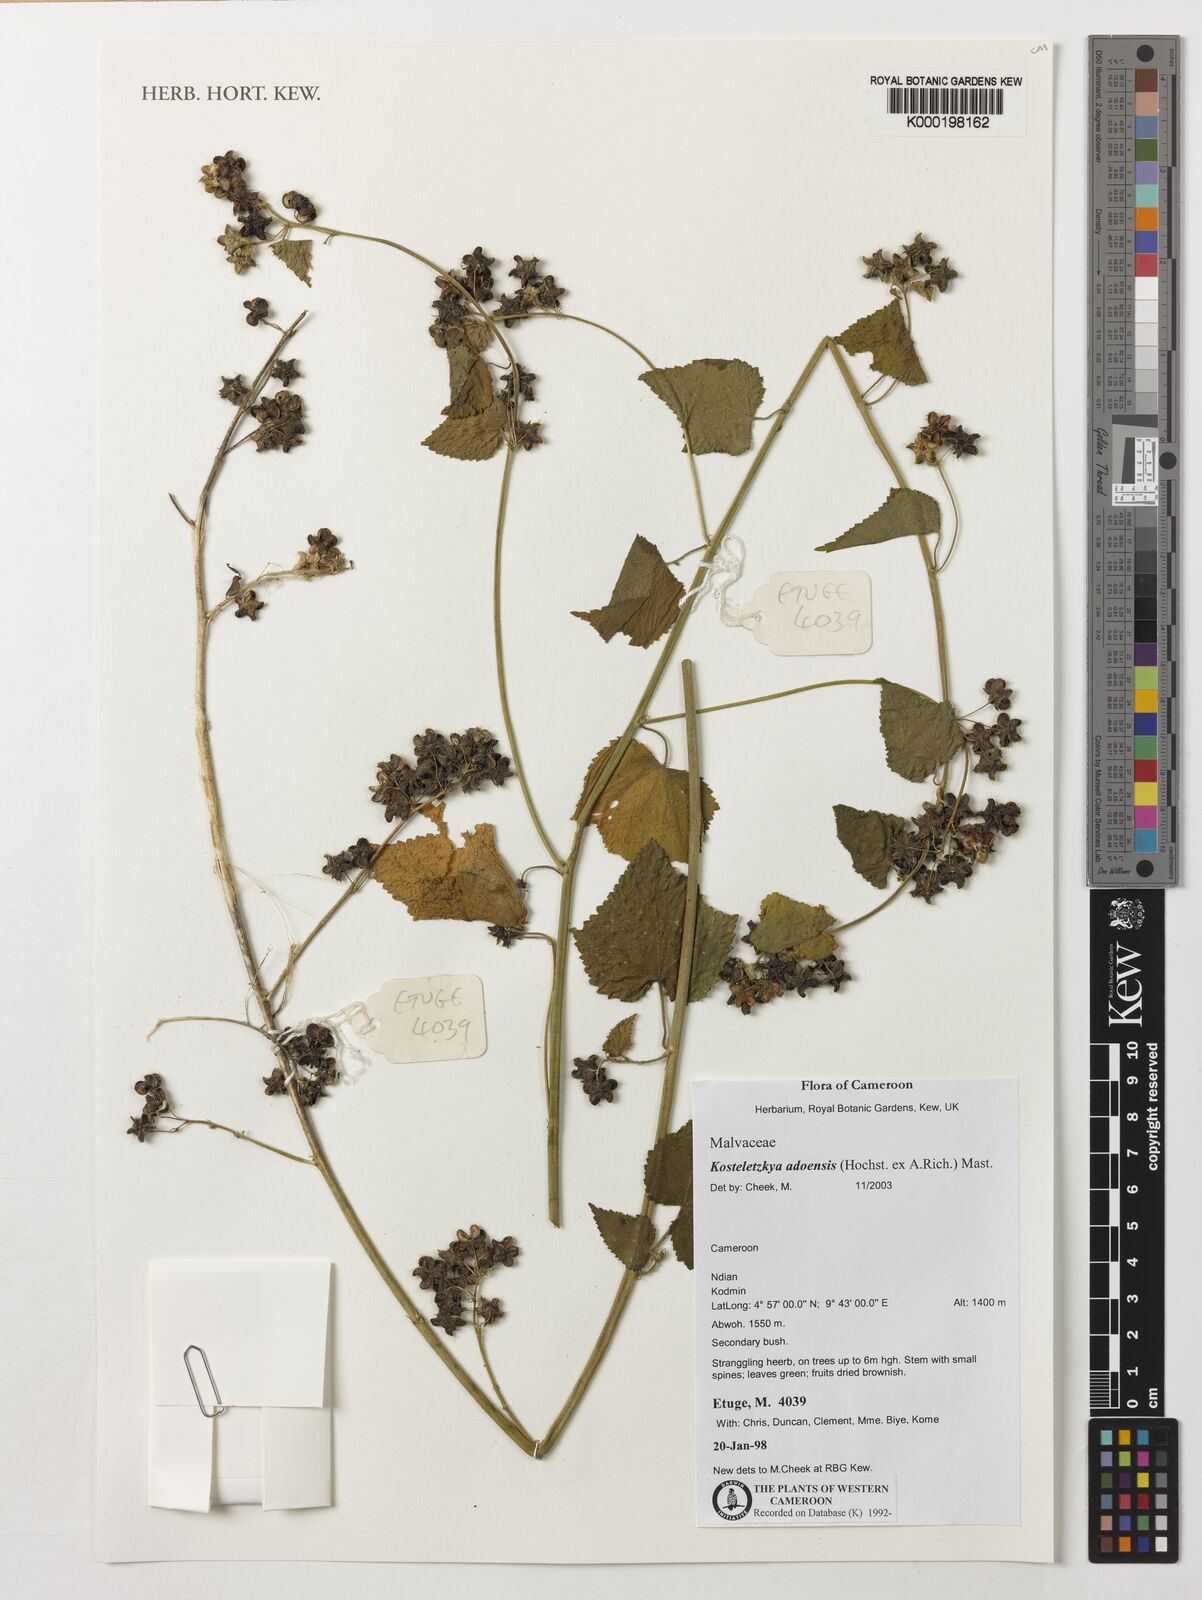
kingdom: Plantae
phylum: Tracheophyta
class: Magnoliopsida
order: Malvales
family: Malvaceae
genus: Kosteletzkya
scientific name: Kosteletzkya adoensis
